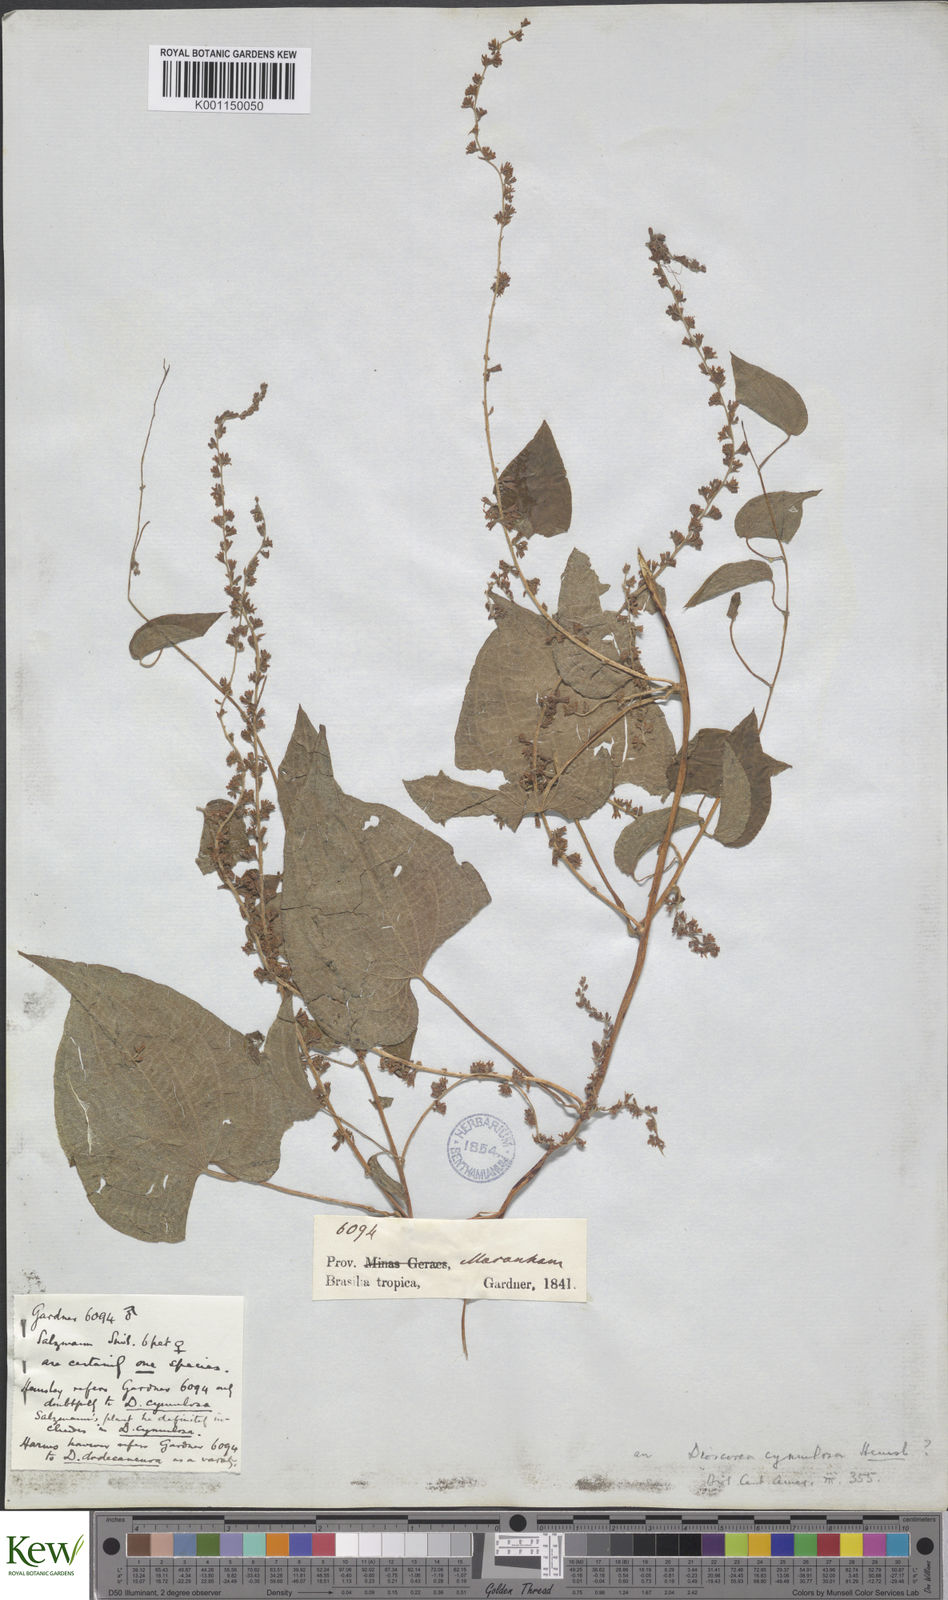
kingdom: Plantae
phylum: Tracheophyta
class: Liliopsida
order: Dioscoreales
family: Dioscoreaceae
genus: Dioscorea
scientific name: Dioscorea dodecaneura
